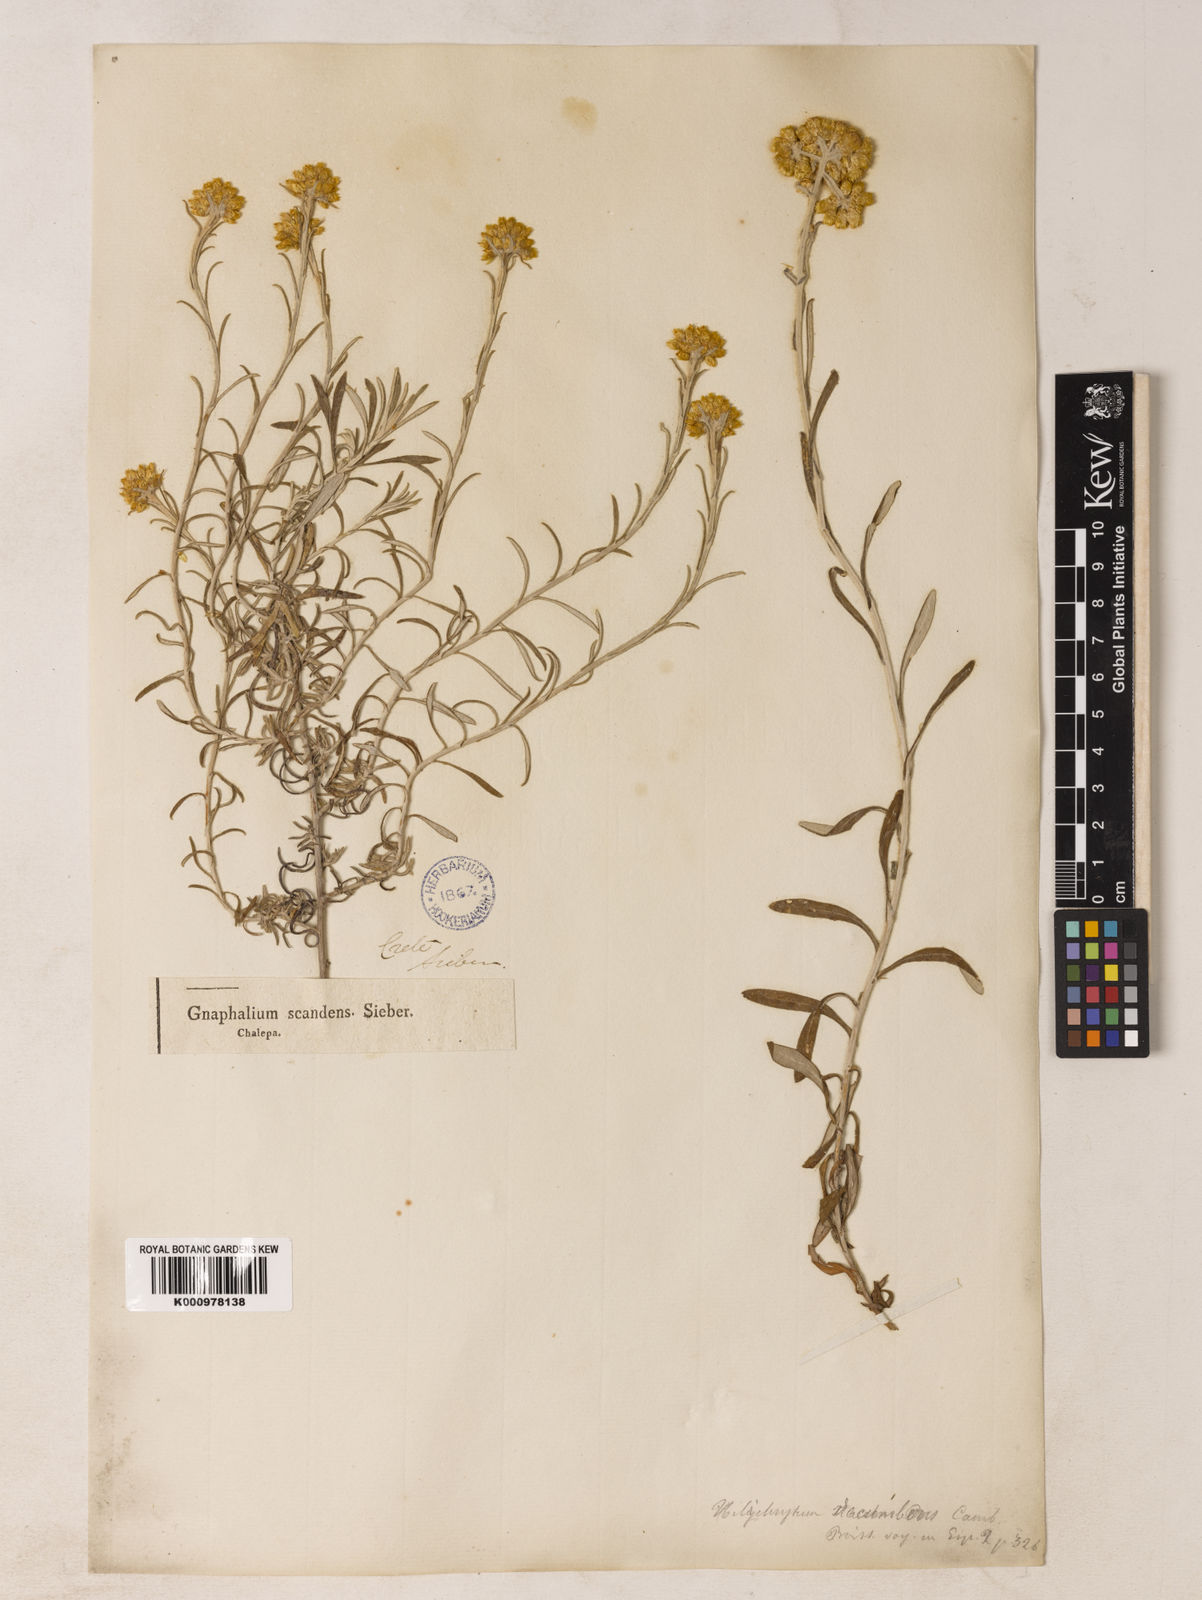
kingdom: Plantae
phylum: Tracheophyta
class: Magnoliopsida
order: Asterales
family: Asteraceae
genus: Helichrysum
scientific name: Helichrysum stoechas
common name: Goldilocks
